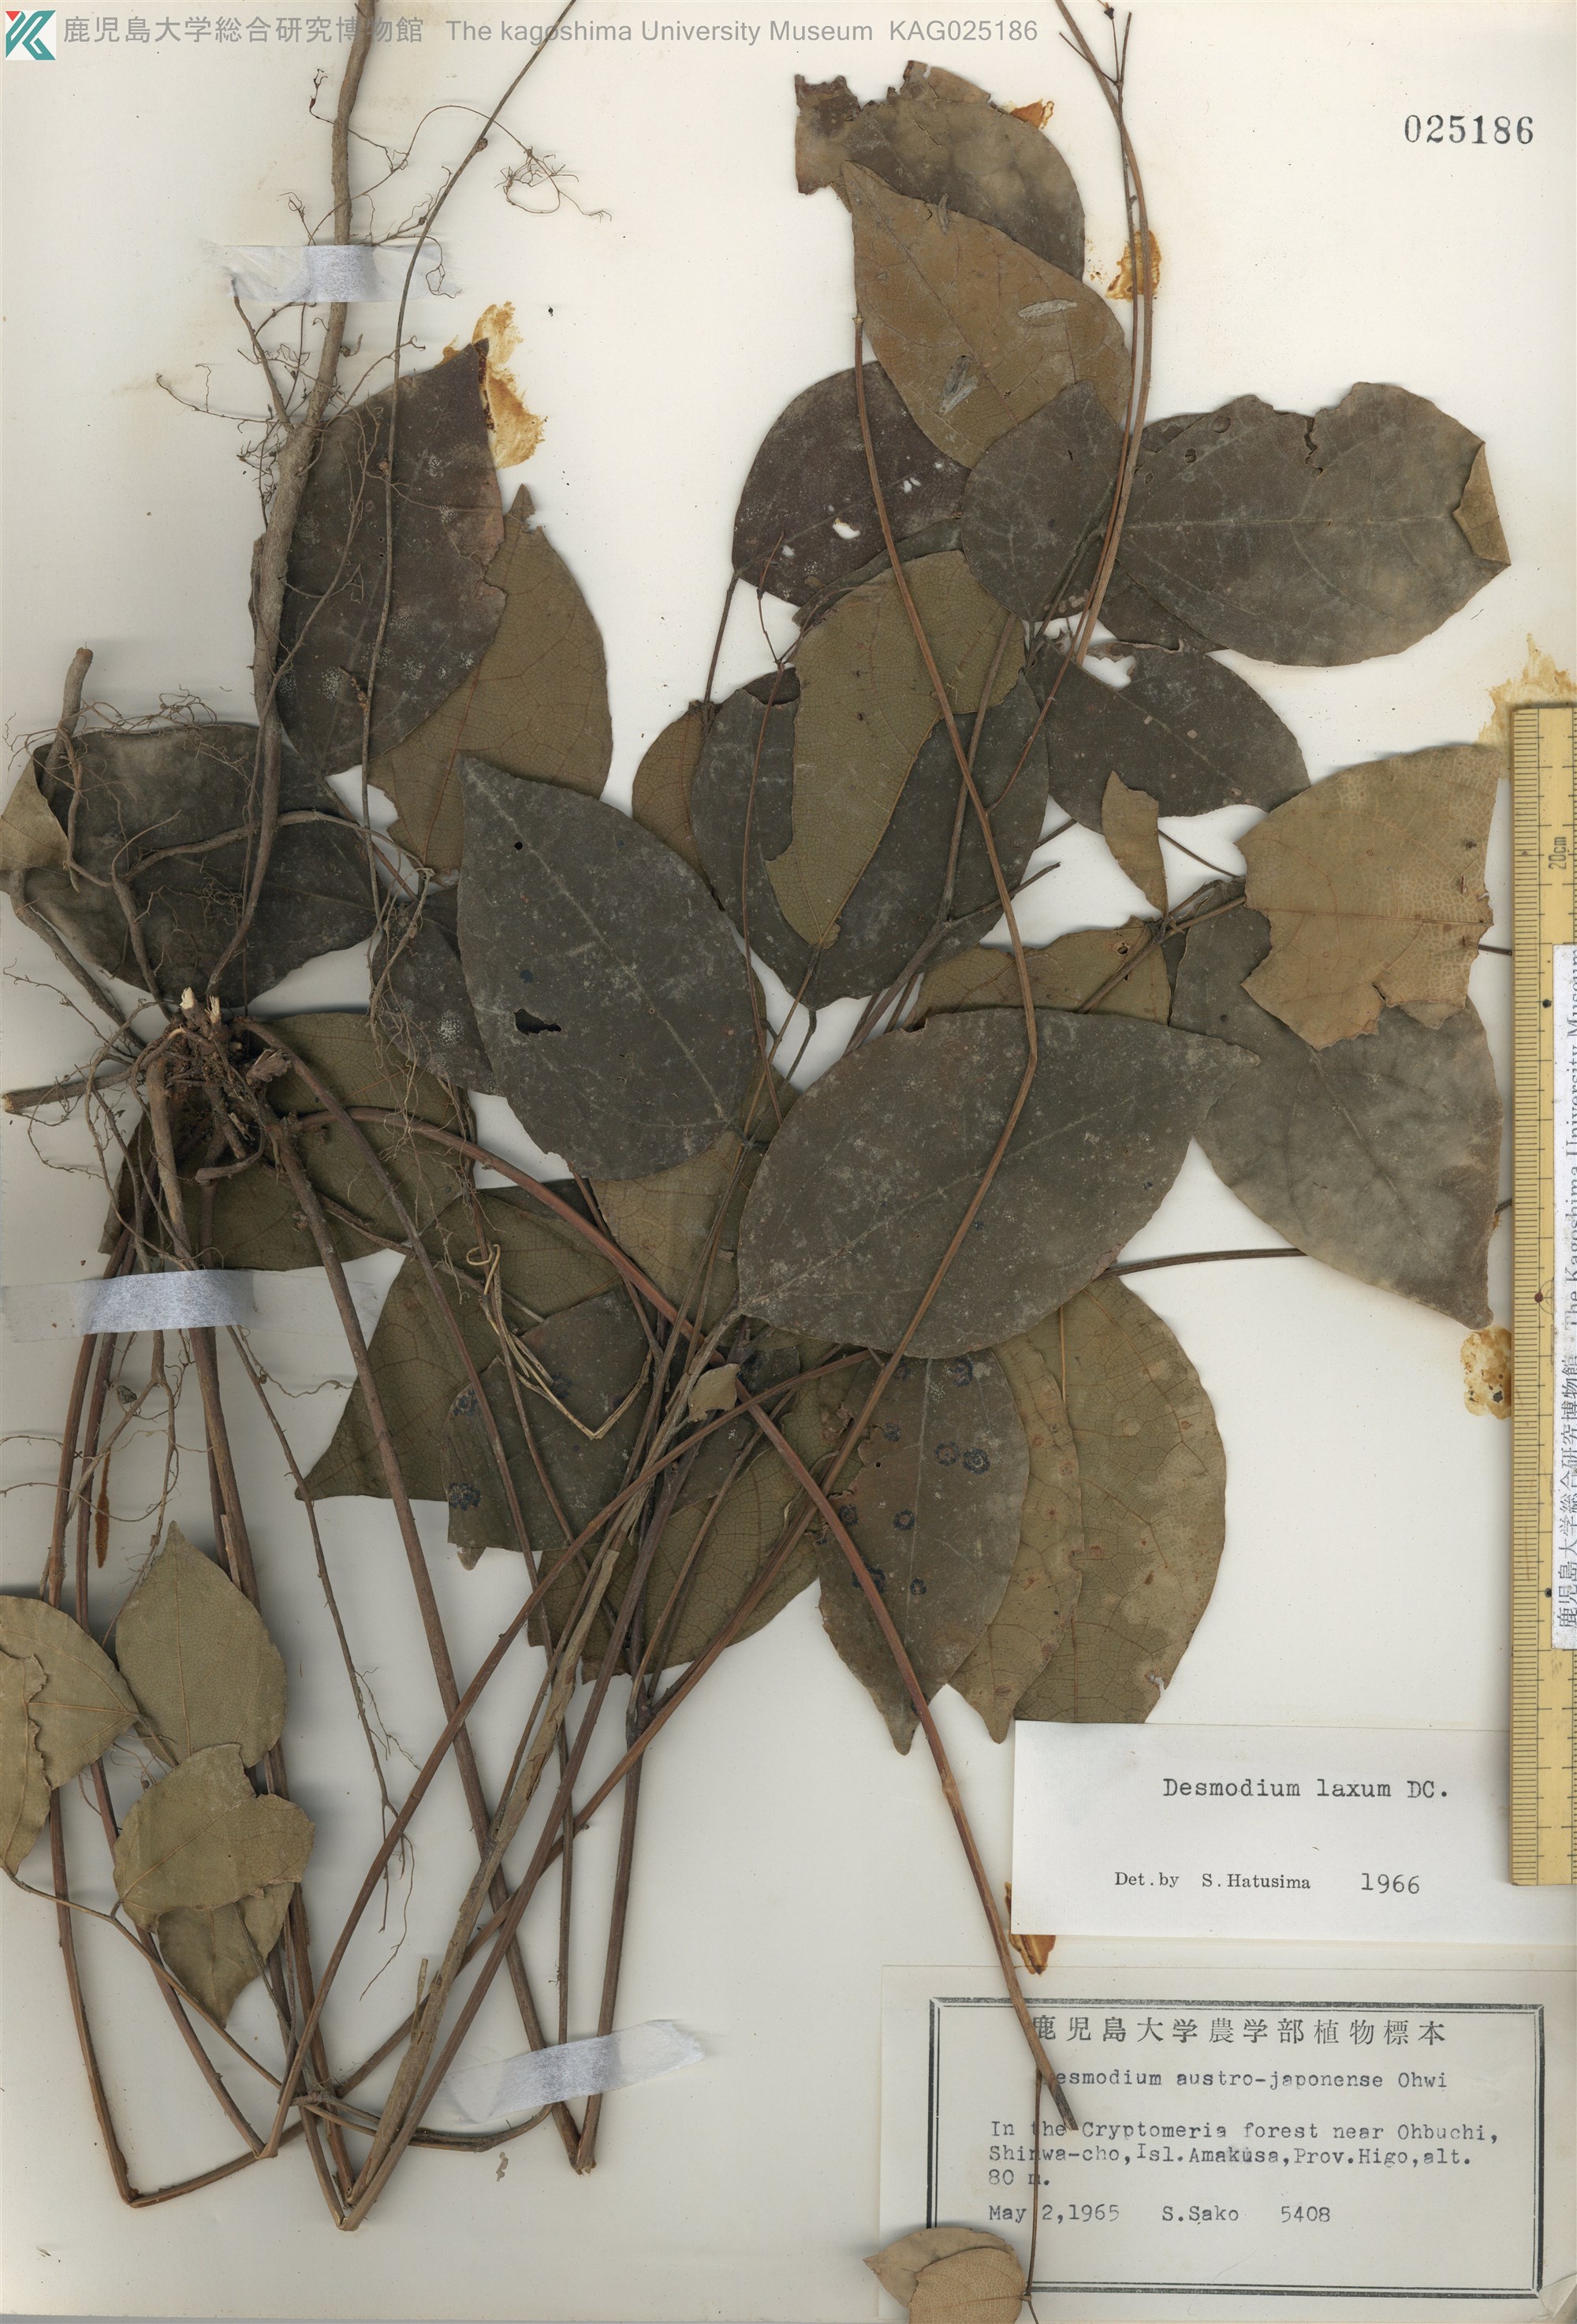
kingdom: Plantae
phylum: Tracheophyta
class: Magnoliopsida
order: Fabales
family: Fabaceae
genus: Desmodium
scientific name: Desmodium laxum
